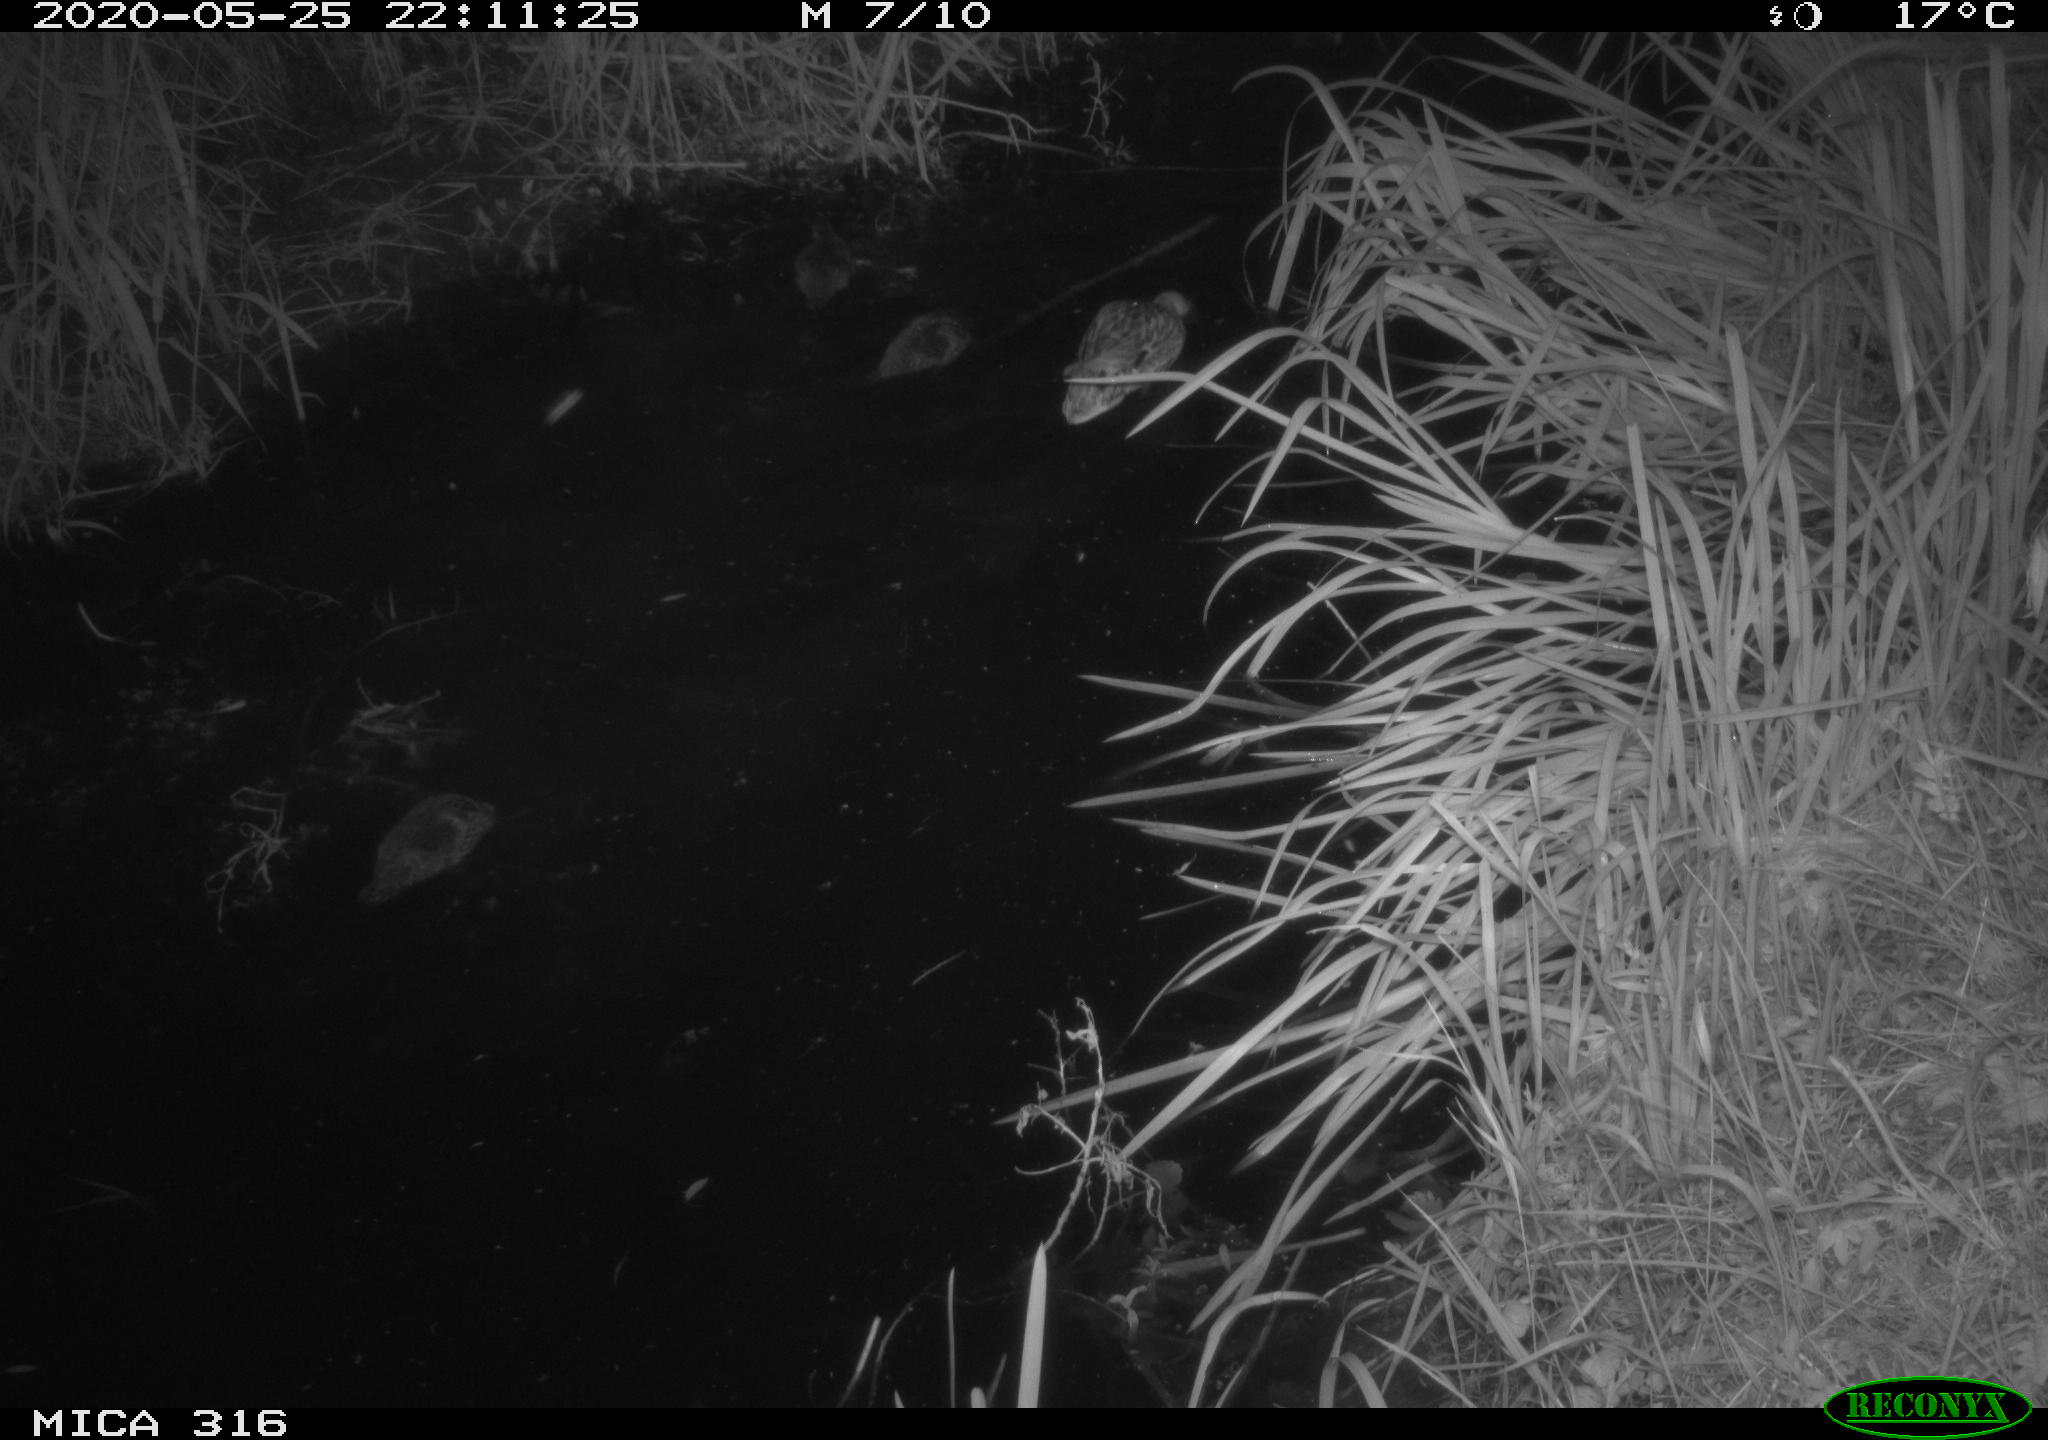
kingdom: Animalia
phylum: Chordata
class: Aves
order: Anseriformes
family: Anatidae
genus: Anas
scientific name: Anas platyrhynchos
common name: Mallard
